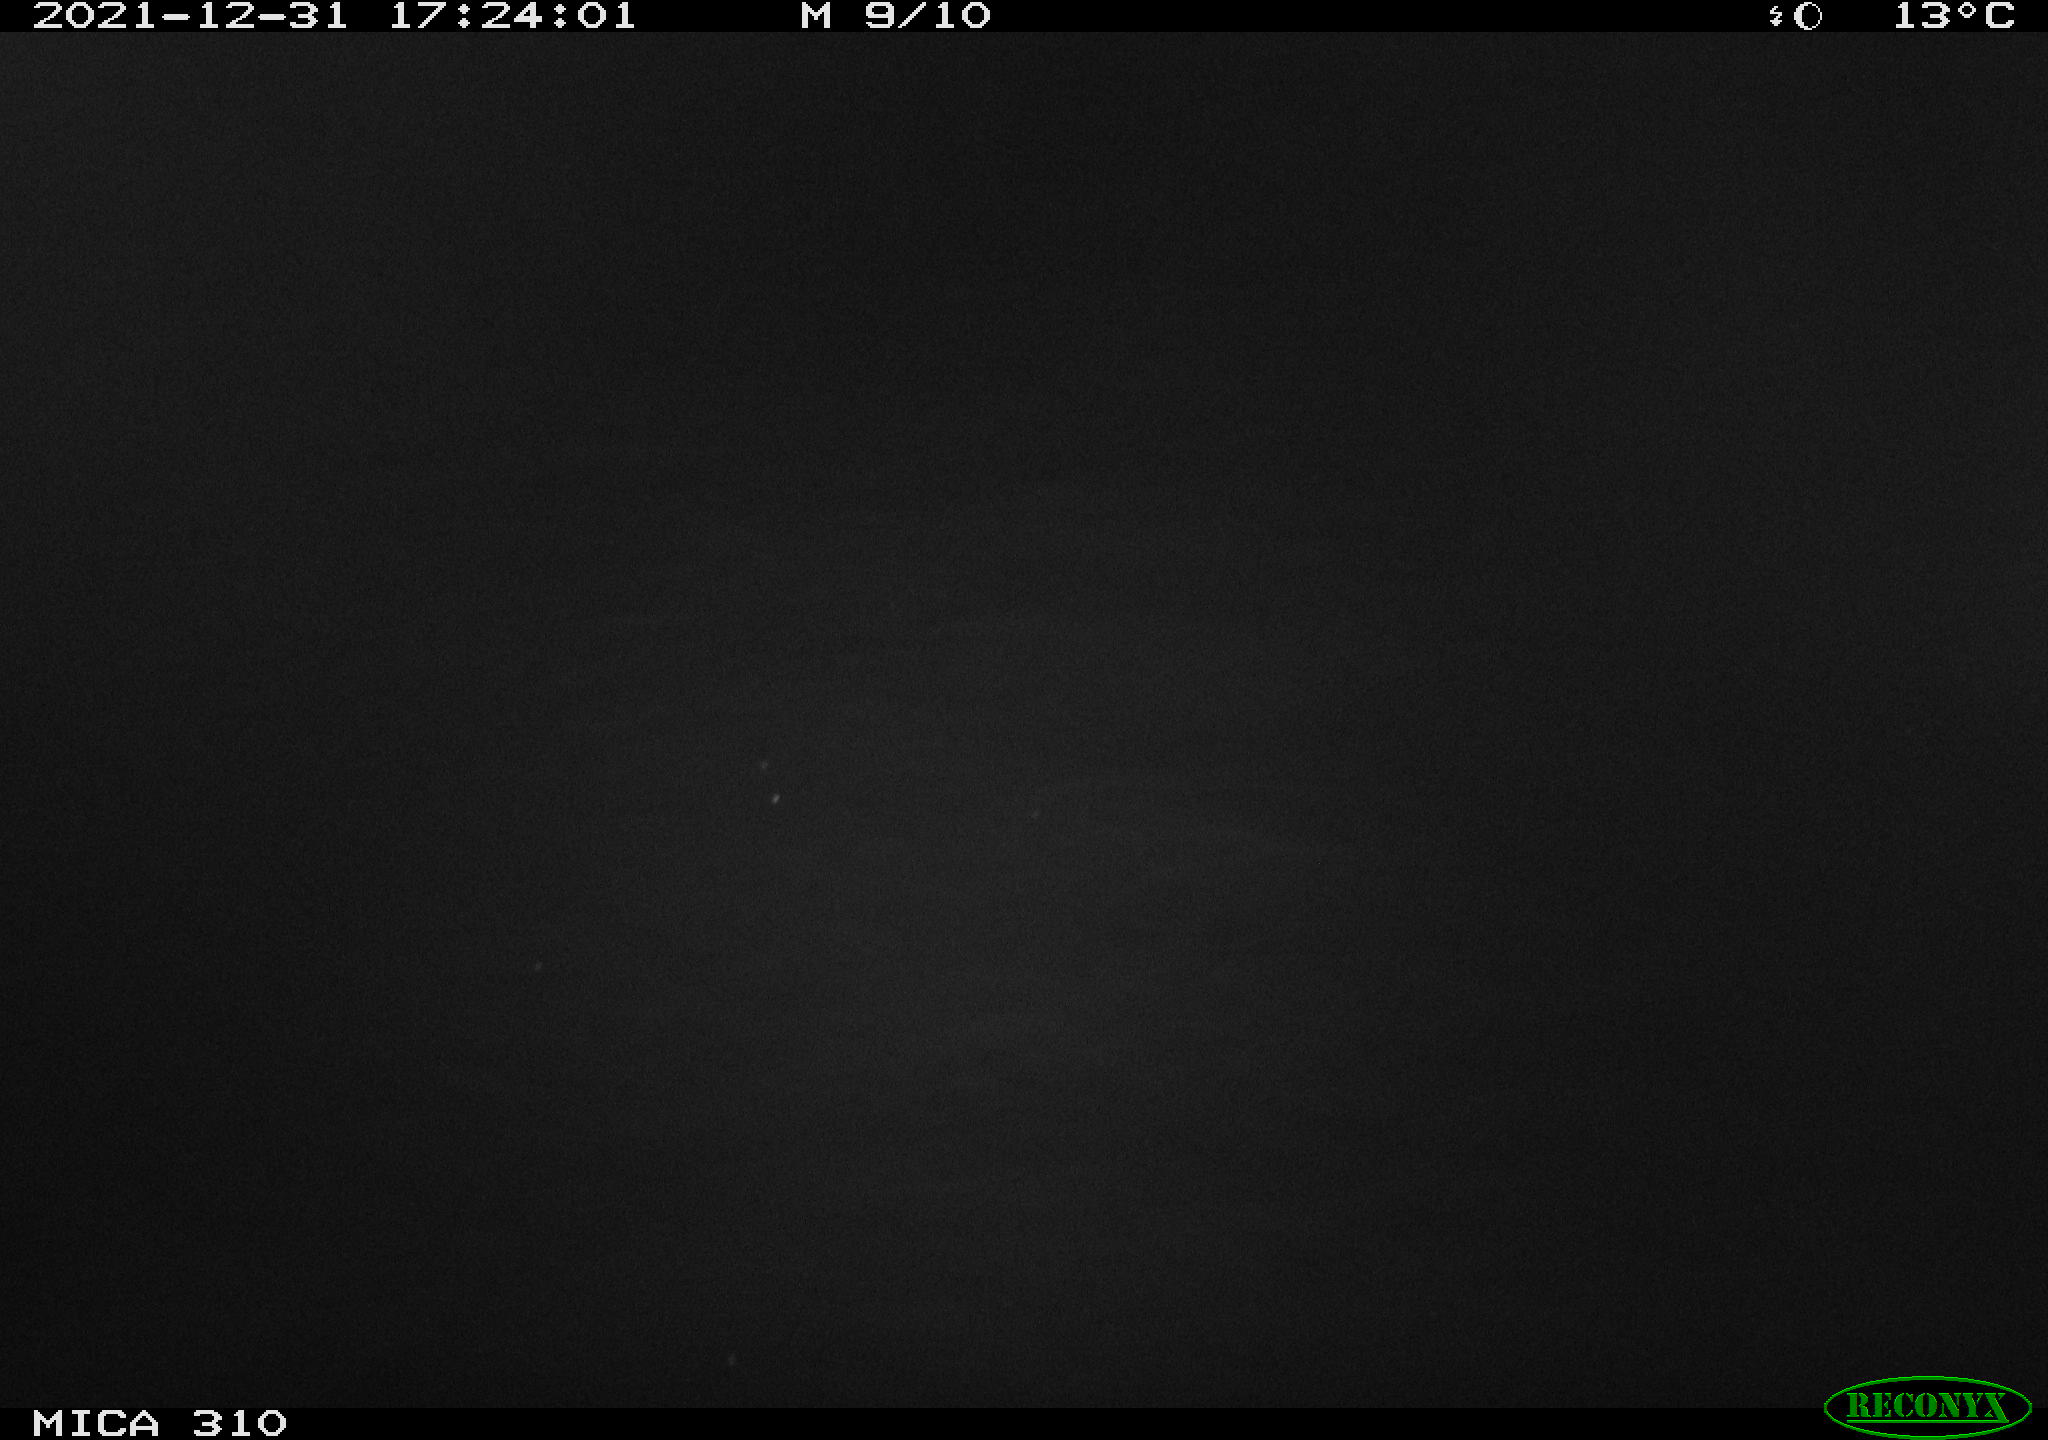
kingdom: Animalia
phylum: Chordata
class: Aves
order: Gruiformes
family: Rallidae
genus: Fulica
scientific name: Fulica atra
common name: Eurasian coot
